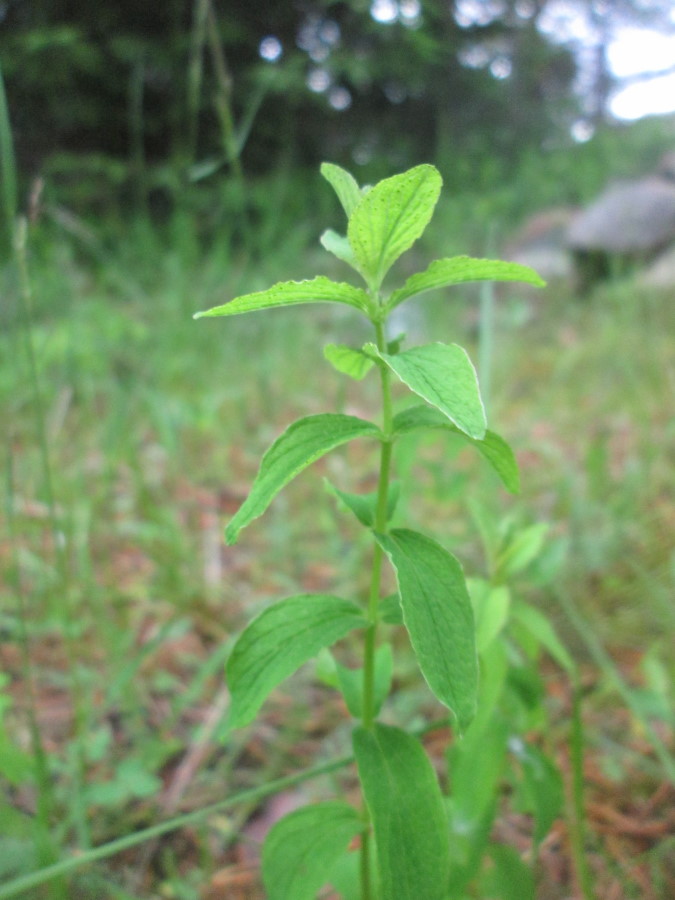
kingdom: Plantae
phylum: Tracheophyta
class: Magnoliopsida
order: Malpighiales
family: Hypericaceae
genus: Hypericum
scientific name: Hypericum
